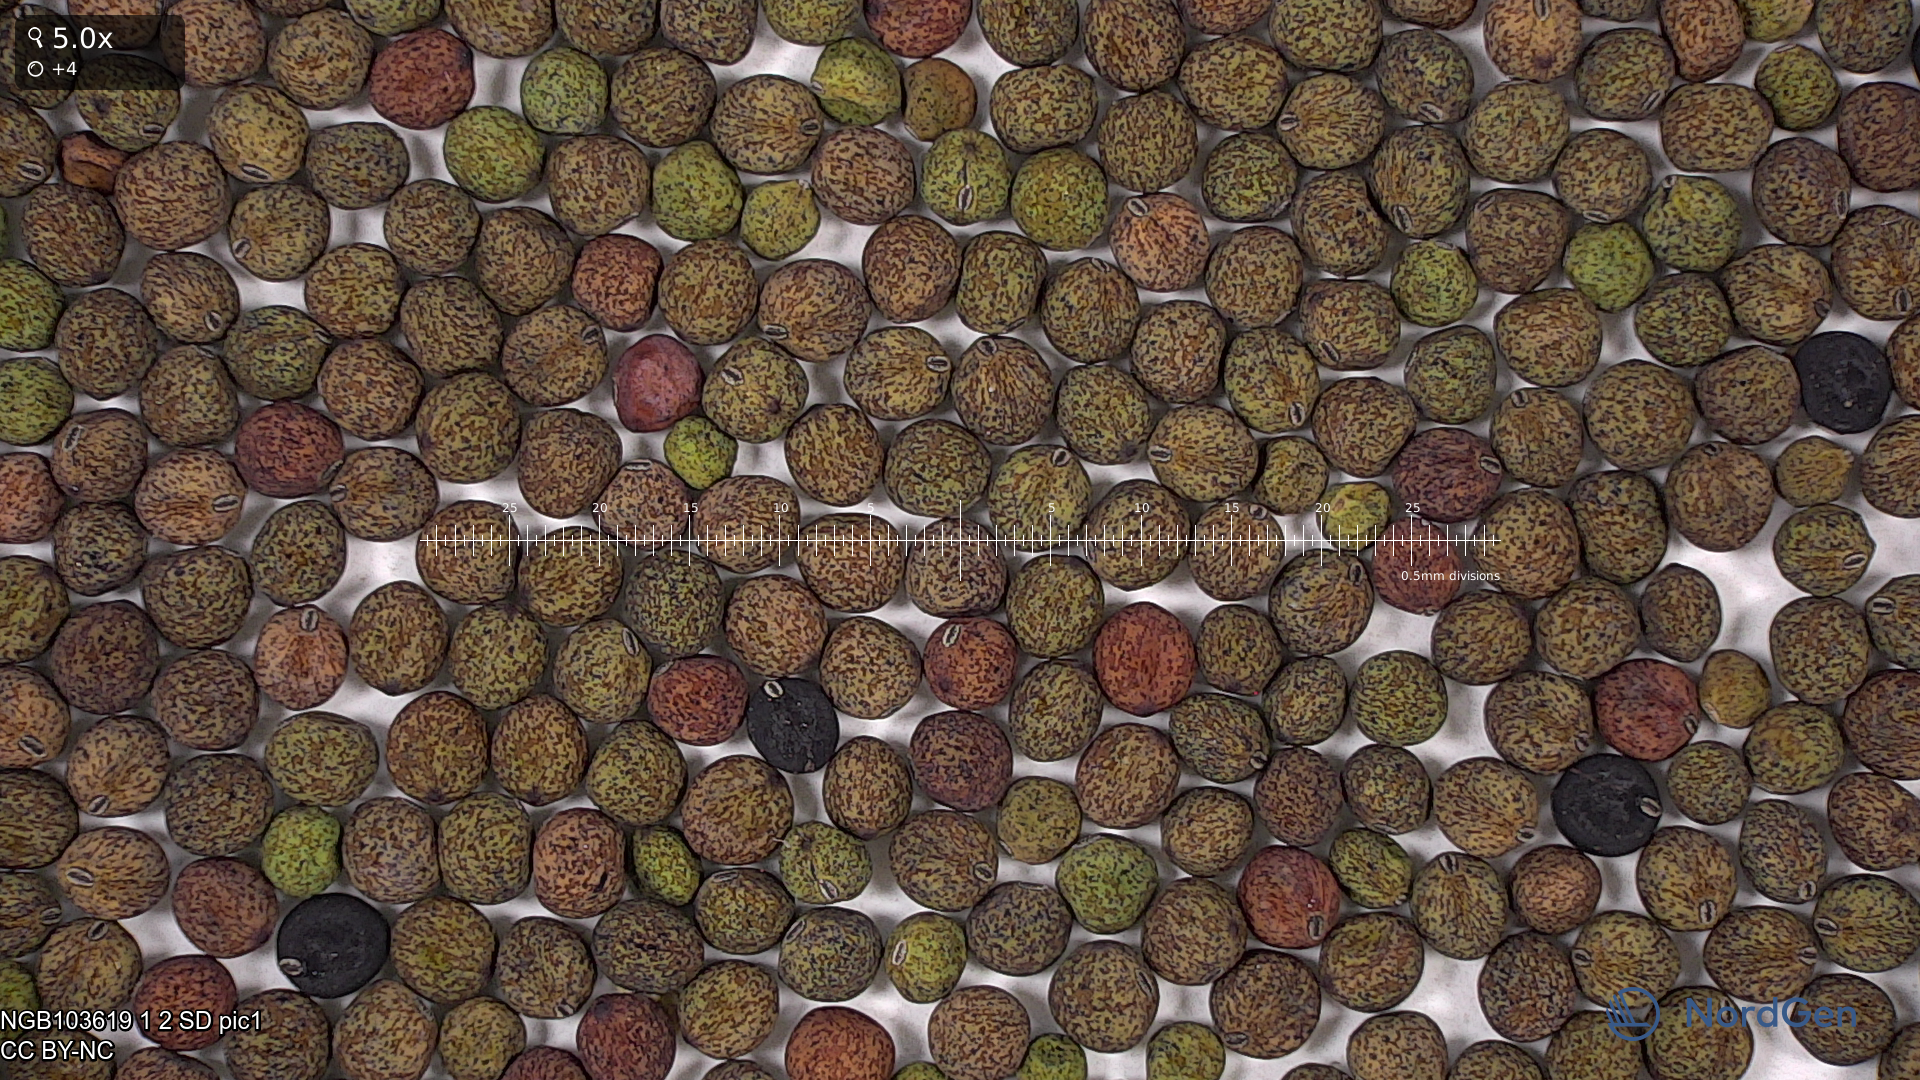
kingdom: Plantae
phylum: Tracheophyta
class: Magnoliopsida
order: Fabales
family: Fabaceae
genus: Lathyrus
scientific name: Lathyrus oleraceus
